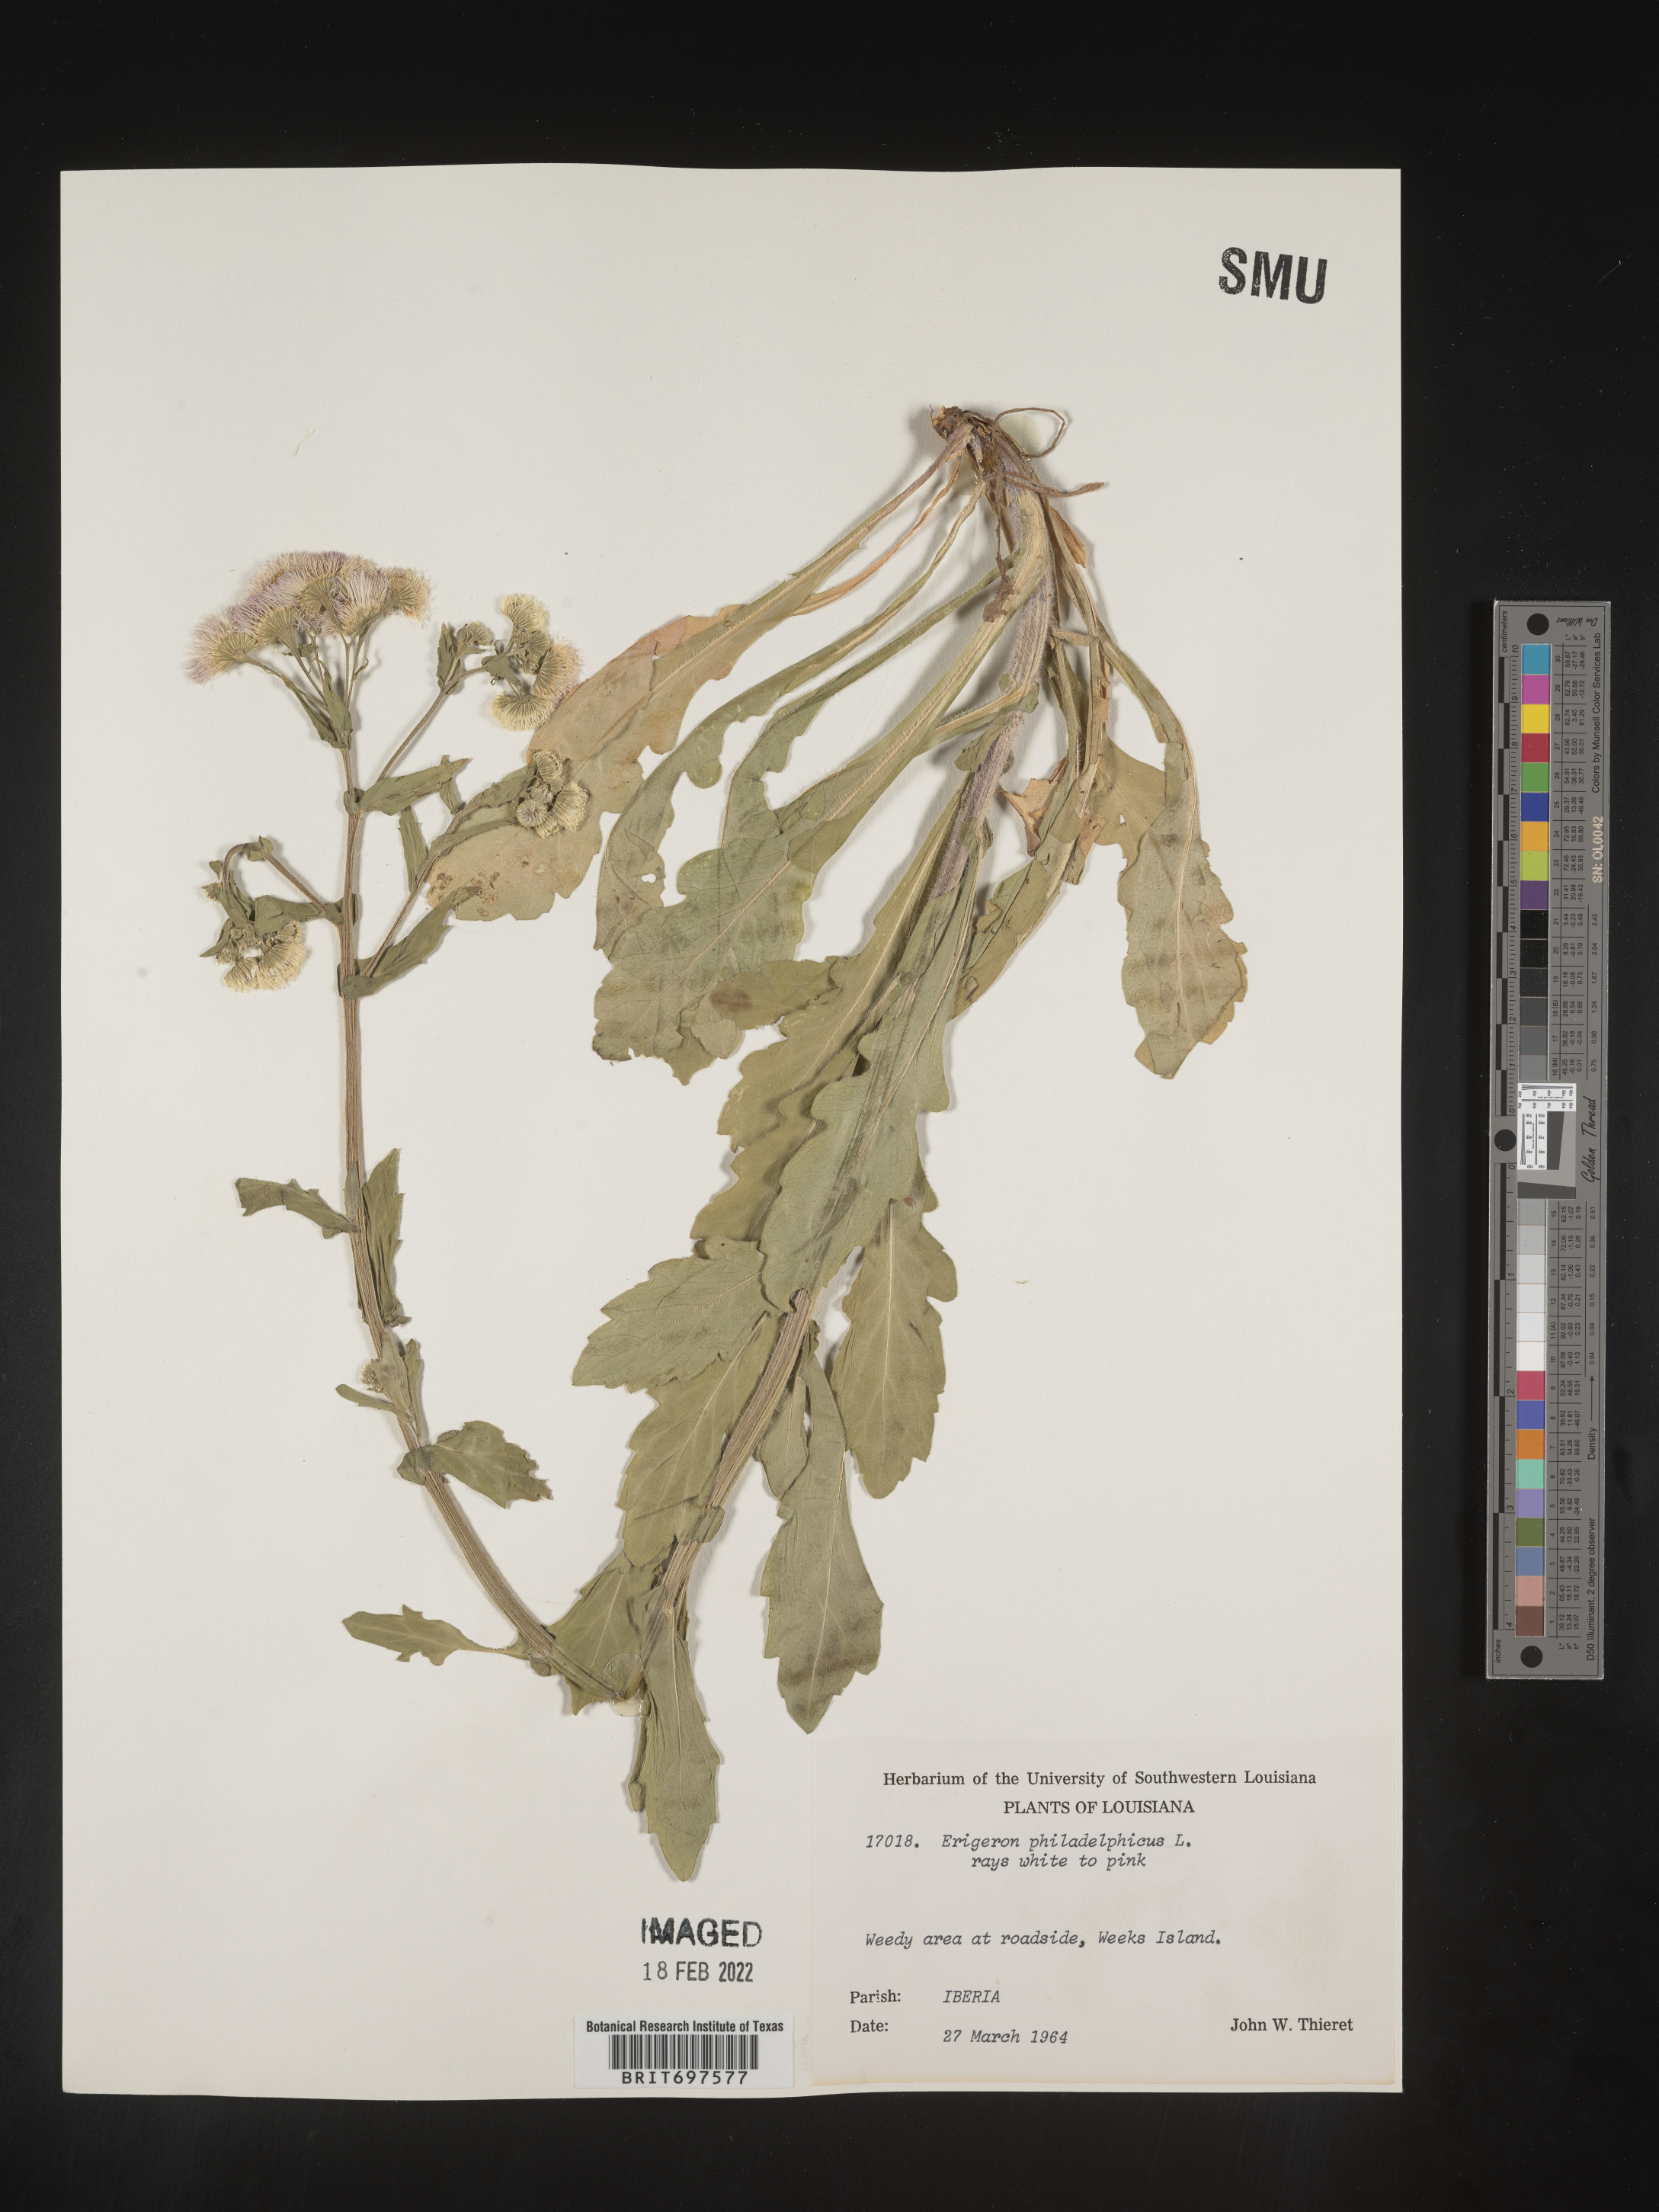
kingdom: Plantae
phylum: Tracheophyta
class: Magnoliopsida
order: Asterales
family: Asteraceae
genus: Erigeron
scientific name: Erigeron philadelphicus
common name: Robin's-plantain
